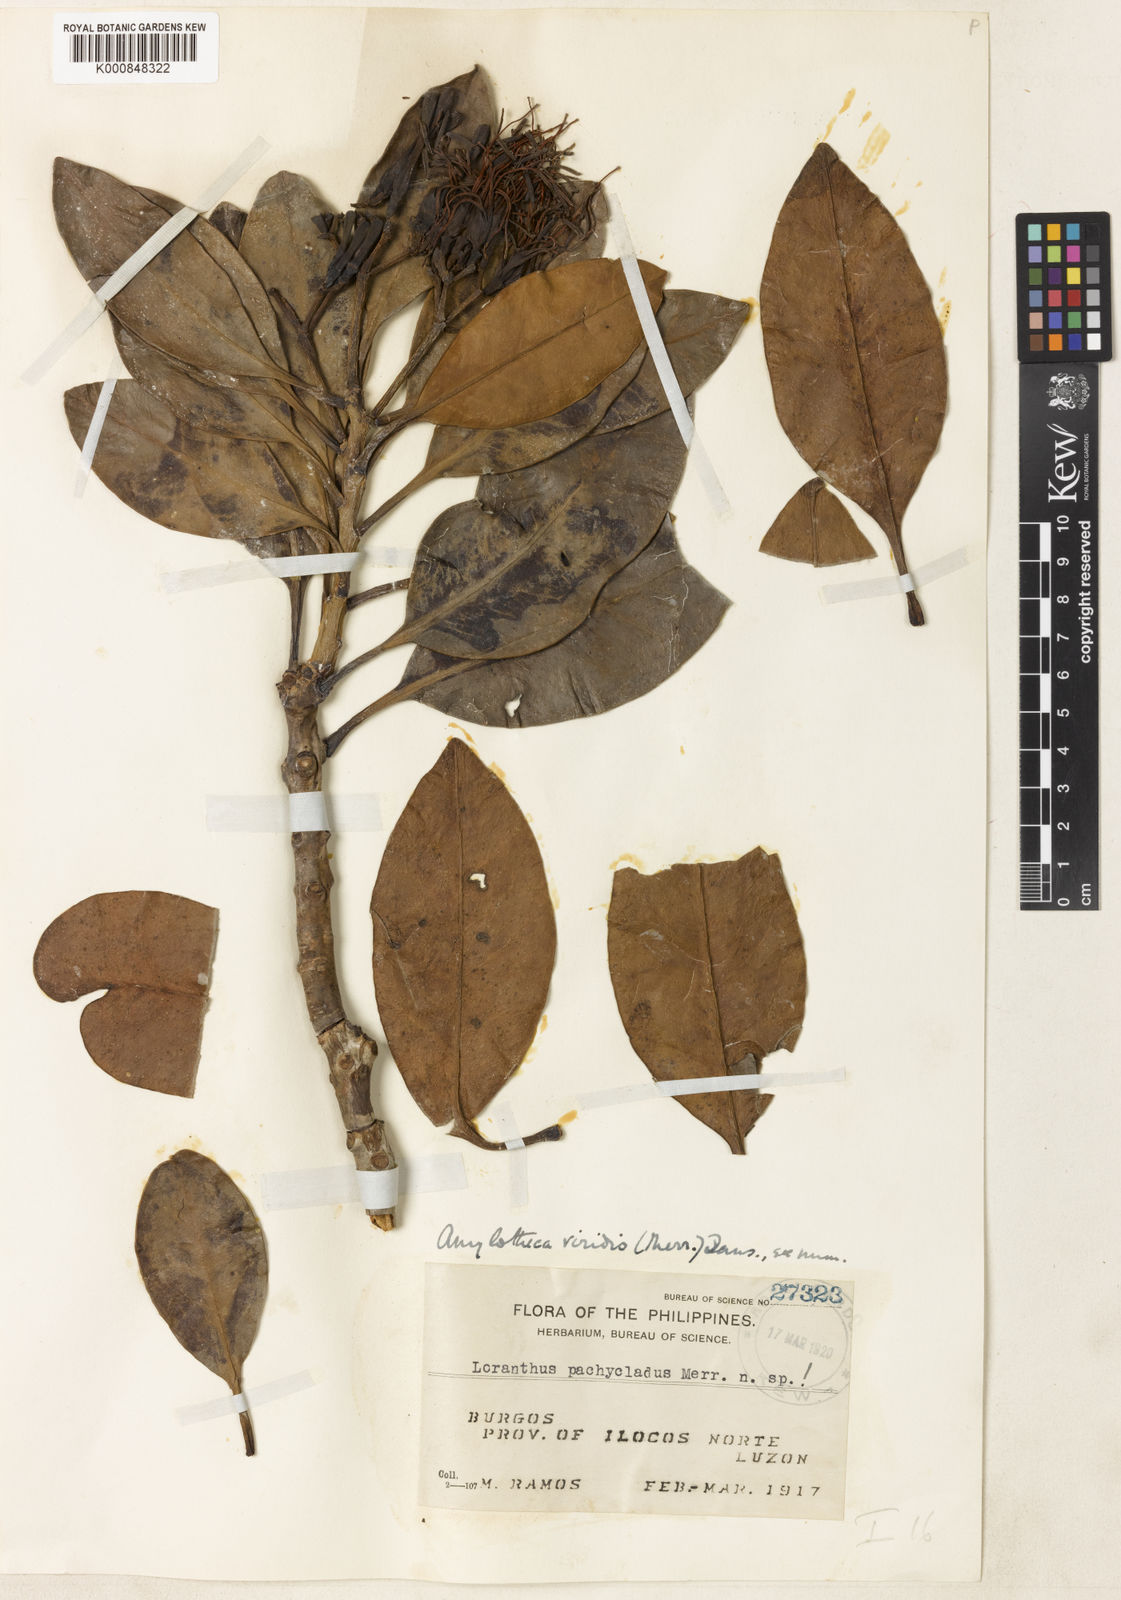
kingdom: Plantae
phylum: Tracheophyta
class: Magnoliopsida
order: Santalales
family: Loranthaceae
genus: Decaisnina
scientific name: Decaisnina viridis
